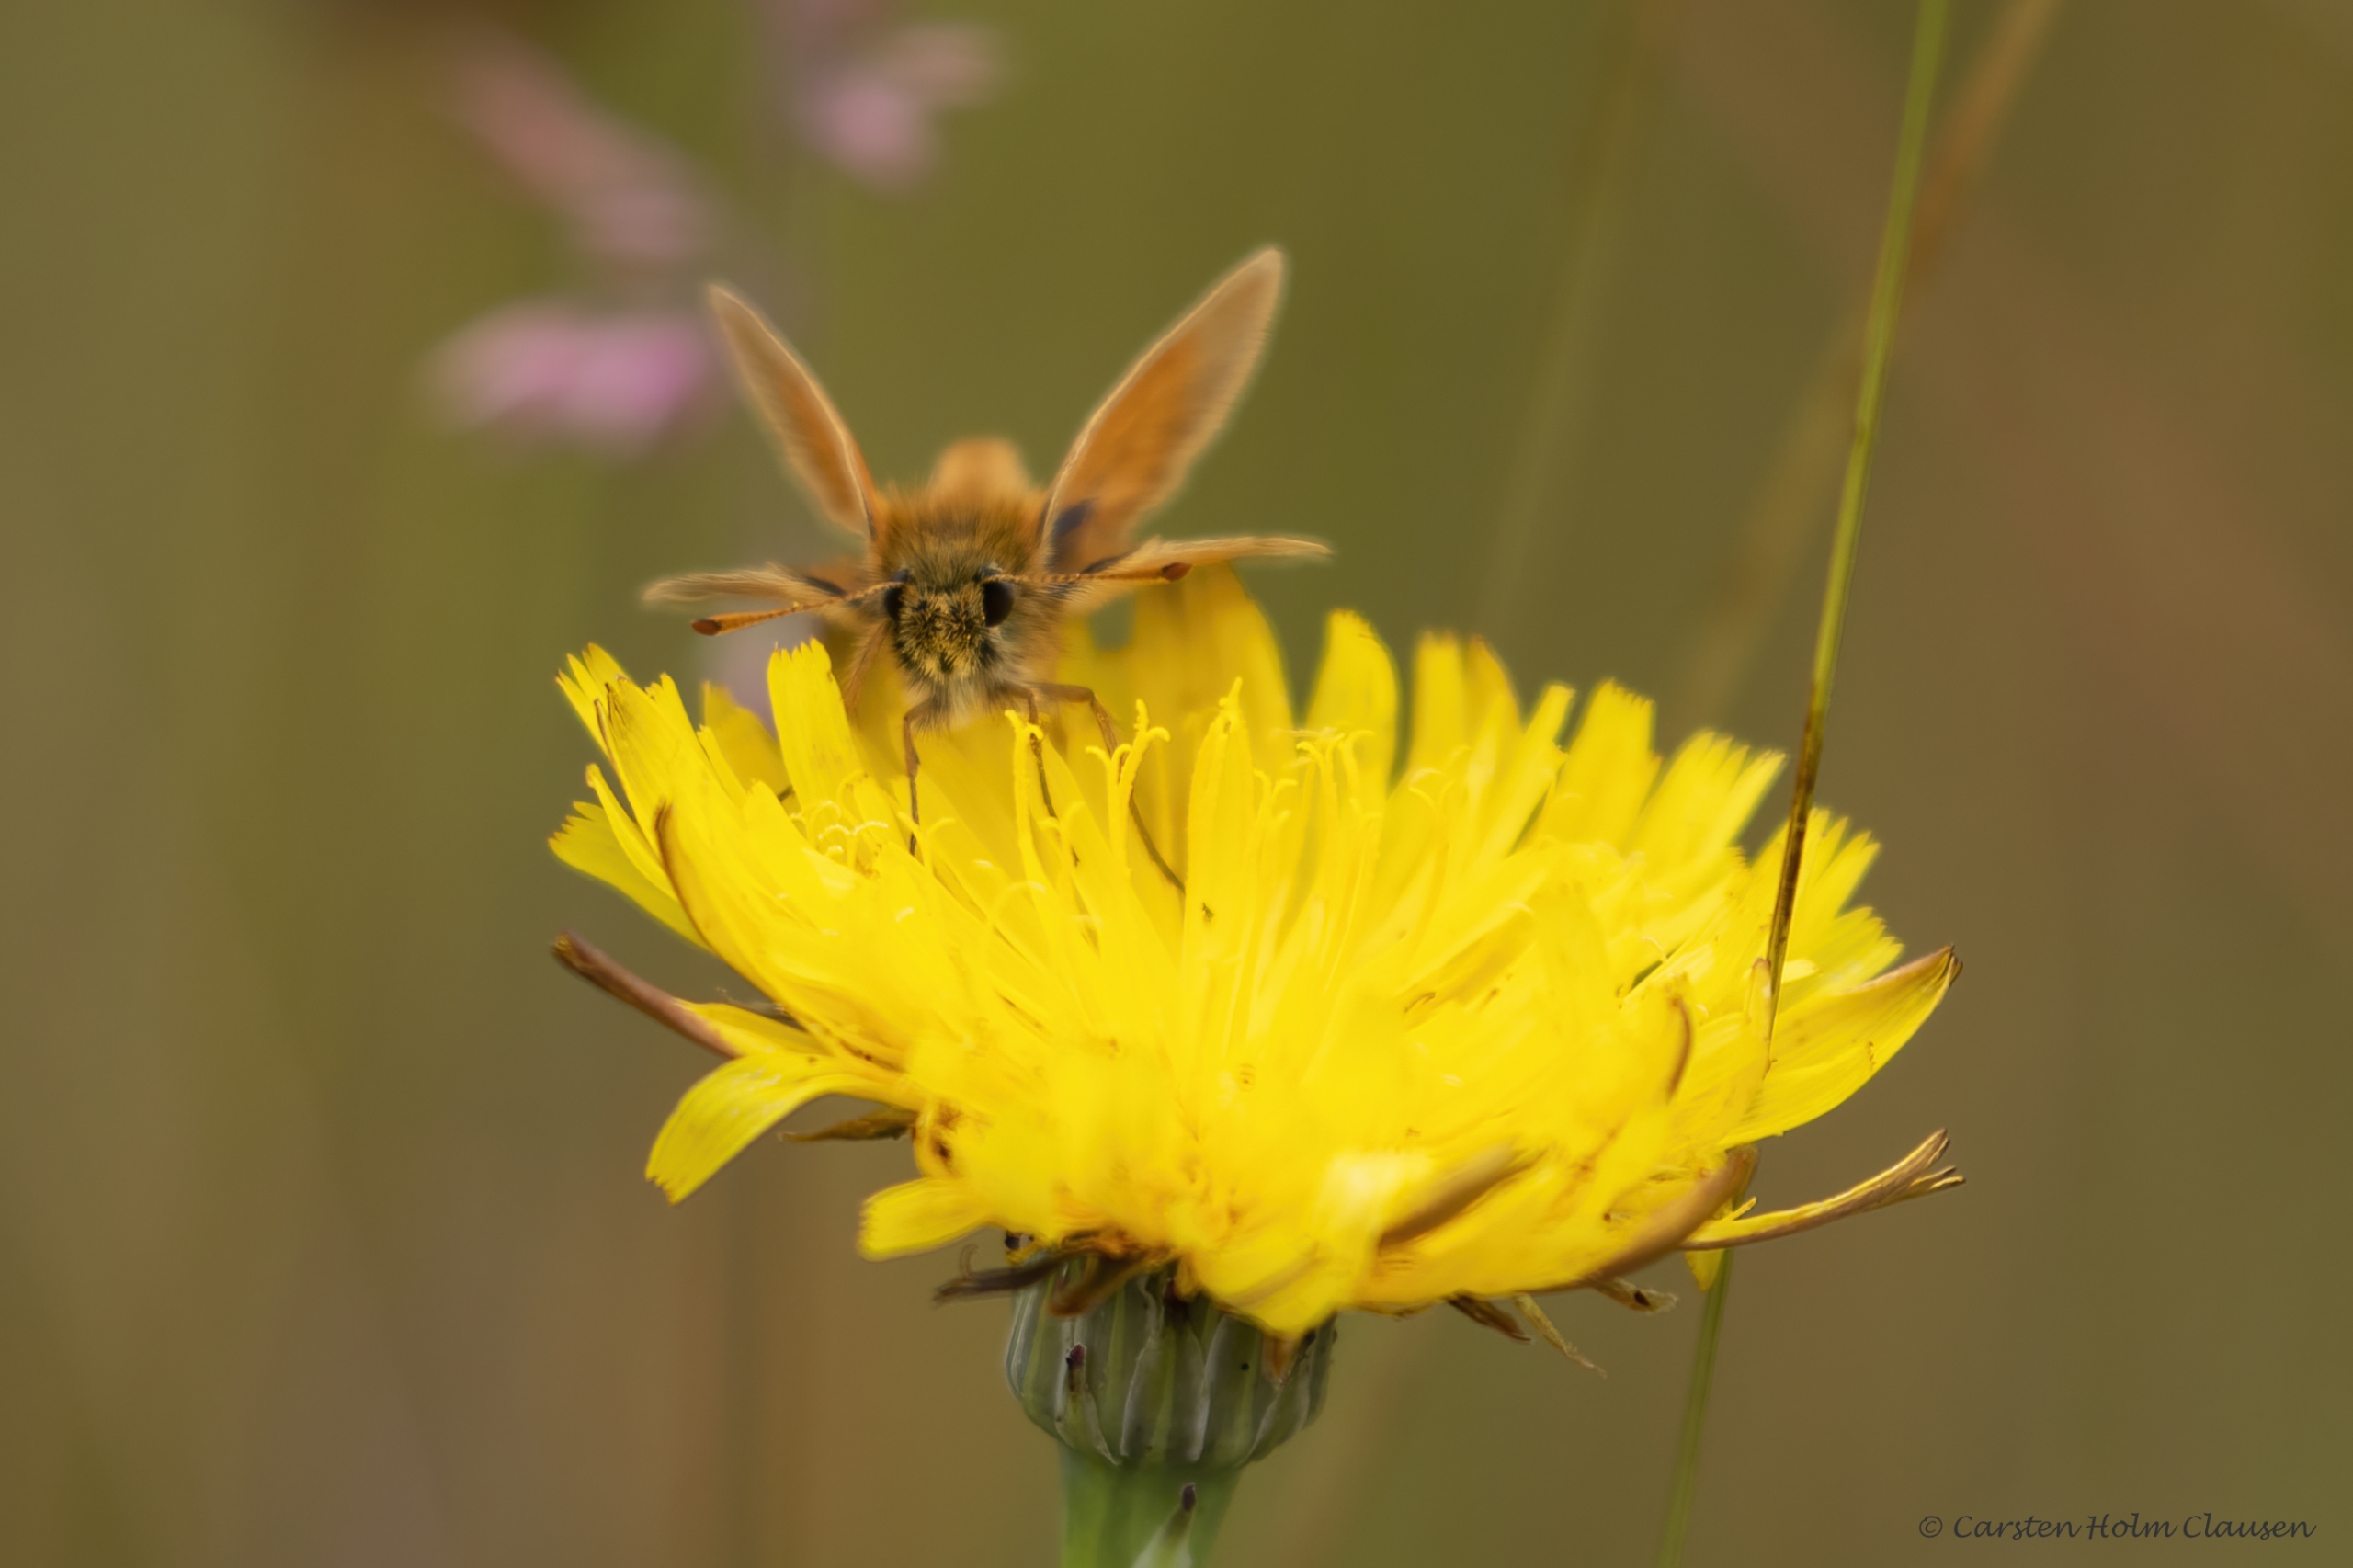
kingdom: Animalia
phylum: Arthropoda
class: Insecta
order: Lepidoptera
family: Hesperiidae
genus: Thymelicus
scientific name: Thymelicus sylvestris
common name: Skråstregbredpande
